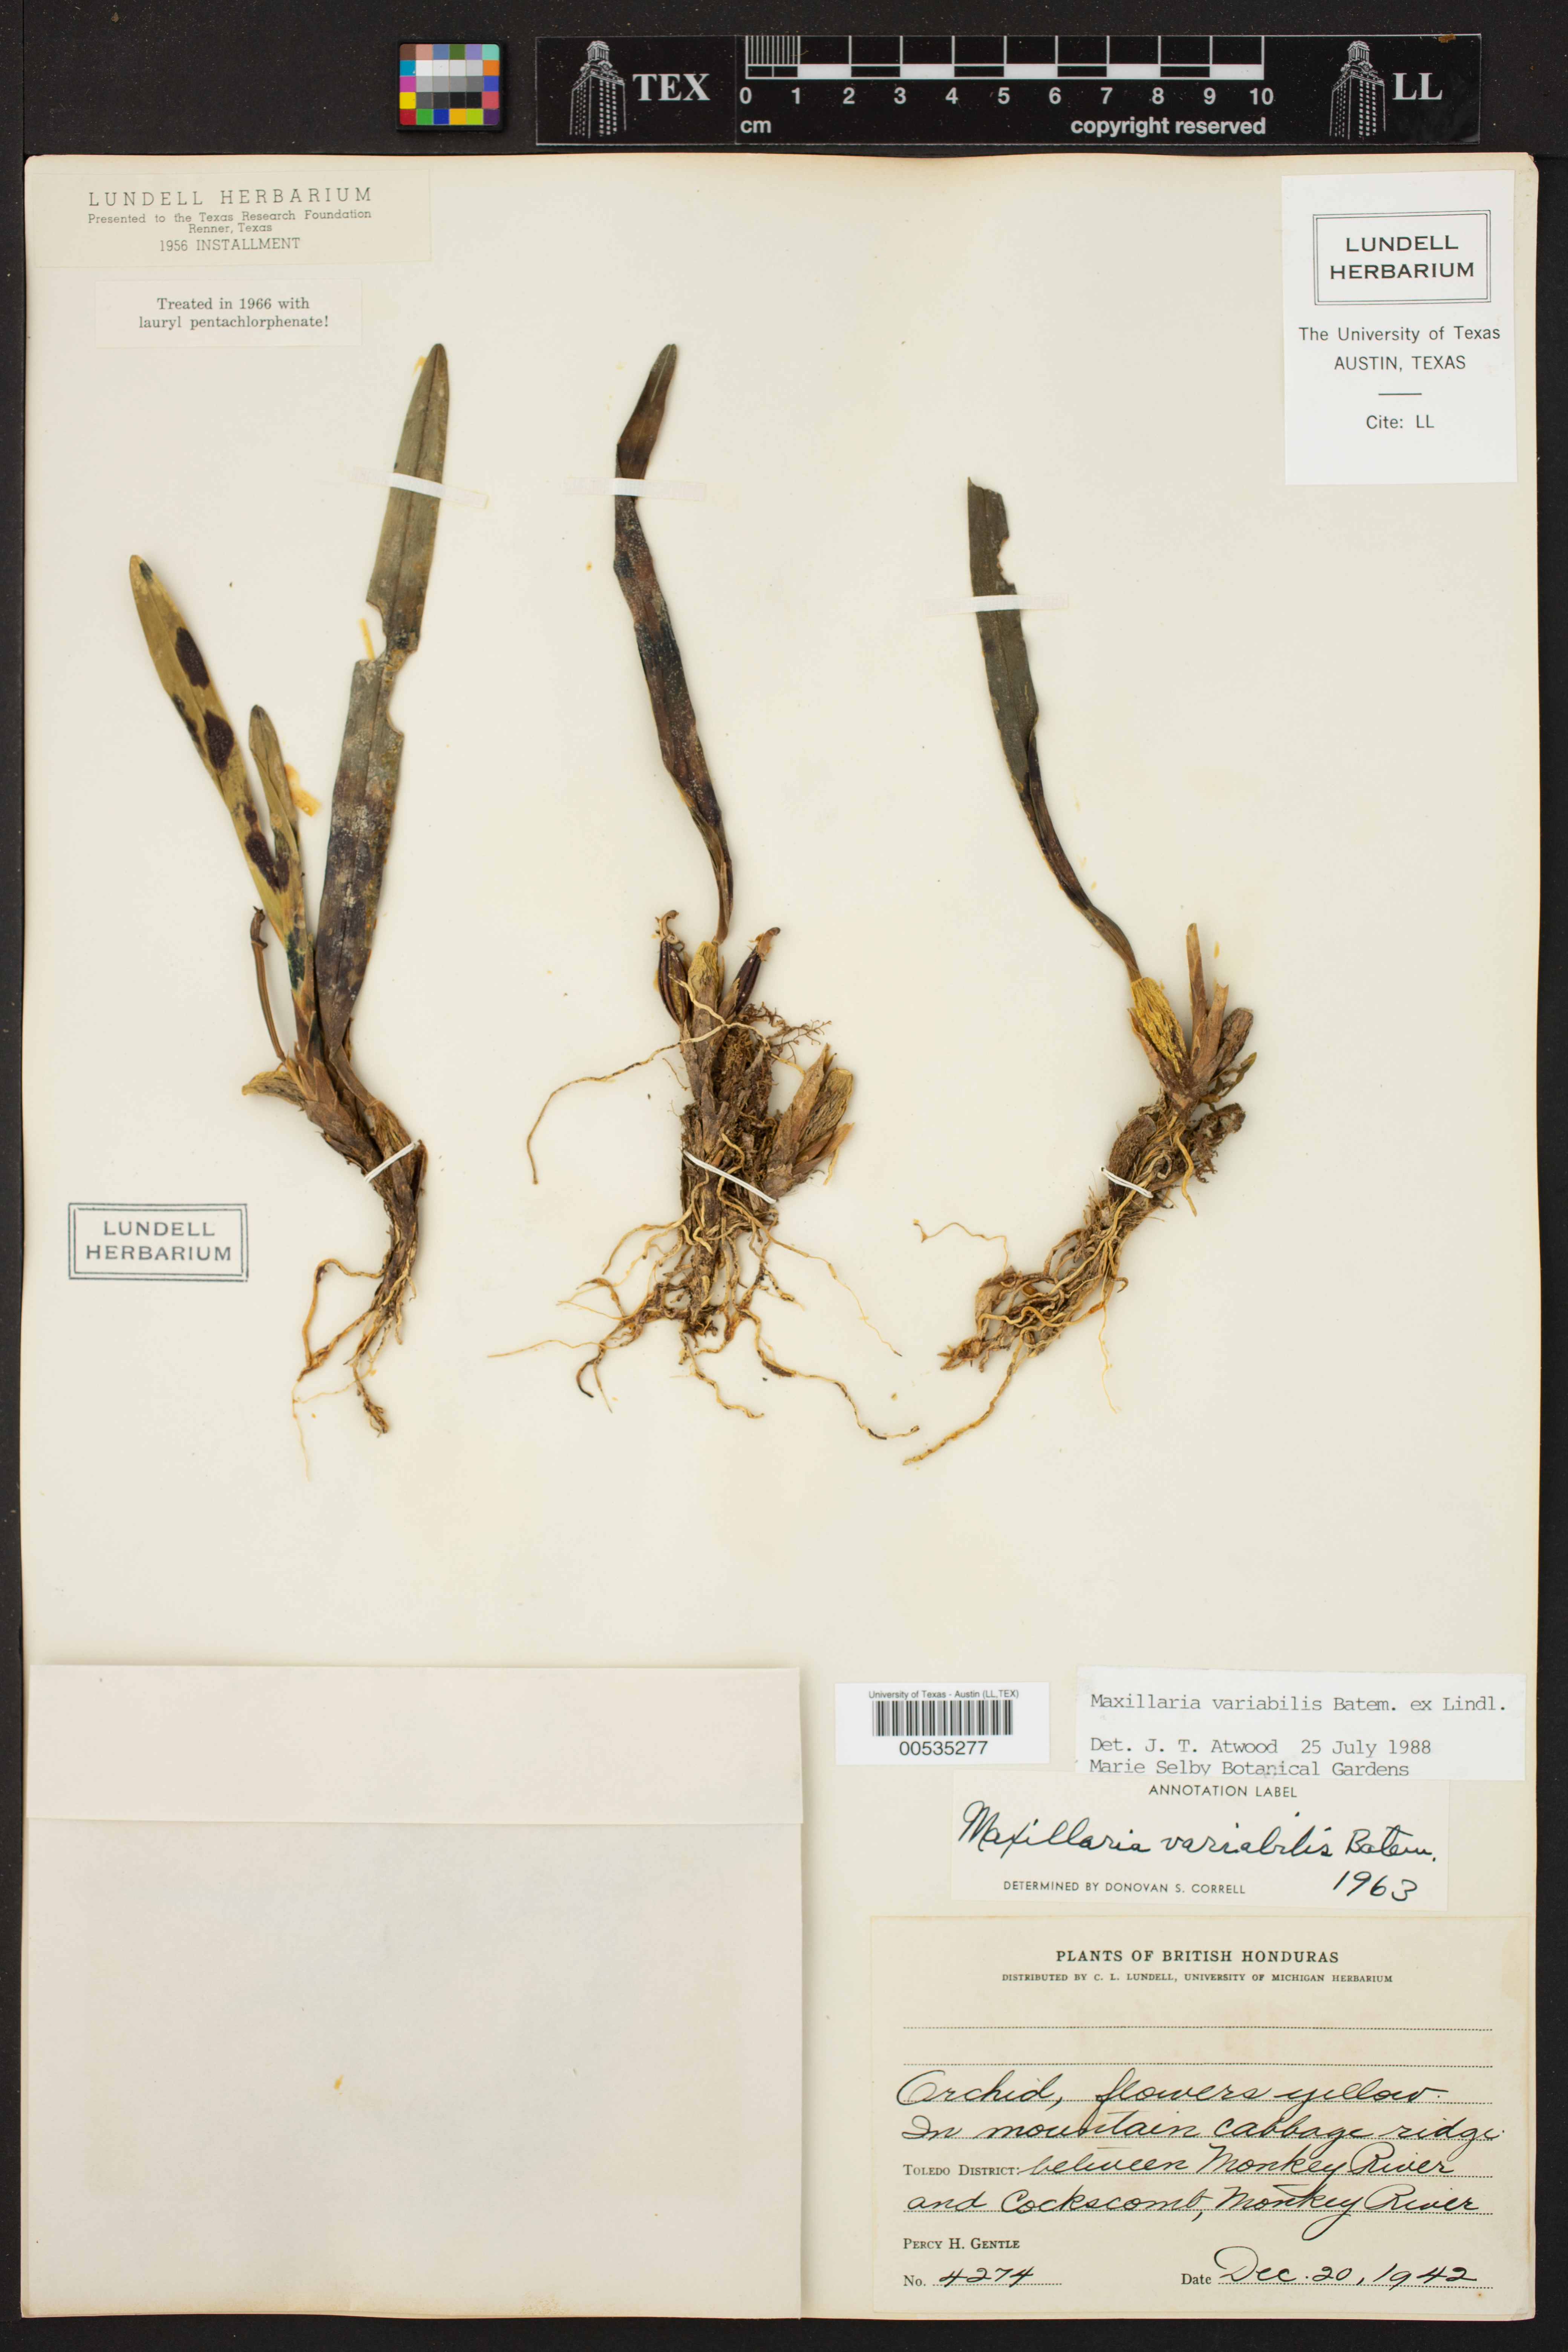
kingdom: Plantae
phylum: Tracheophyta
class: Liliopsida
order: Asparagales
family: Orchidaceae
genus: Maxillaria
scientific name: Maxillaria variabilis
